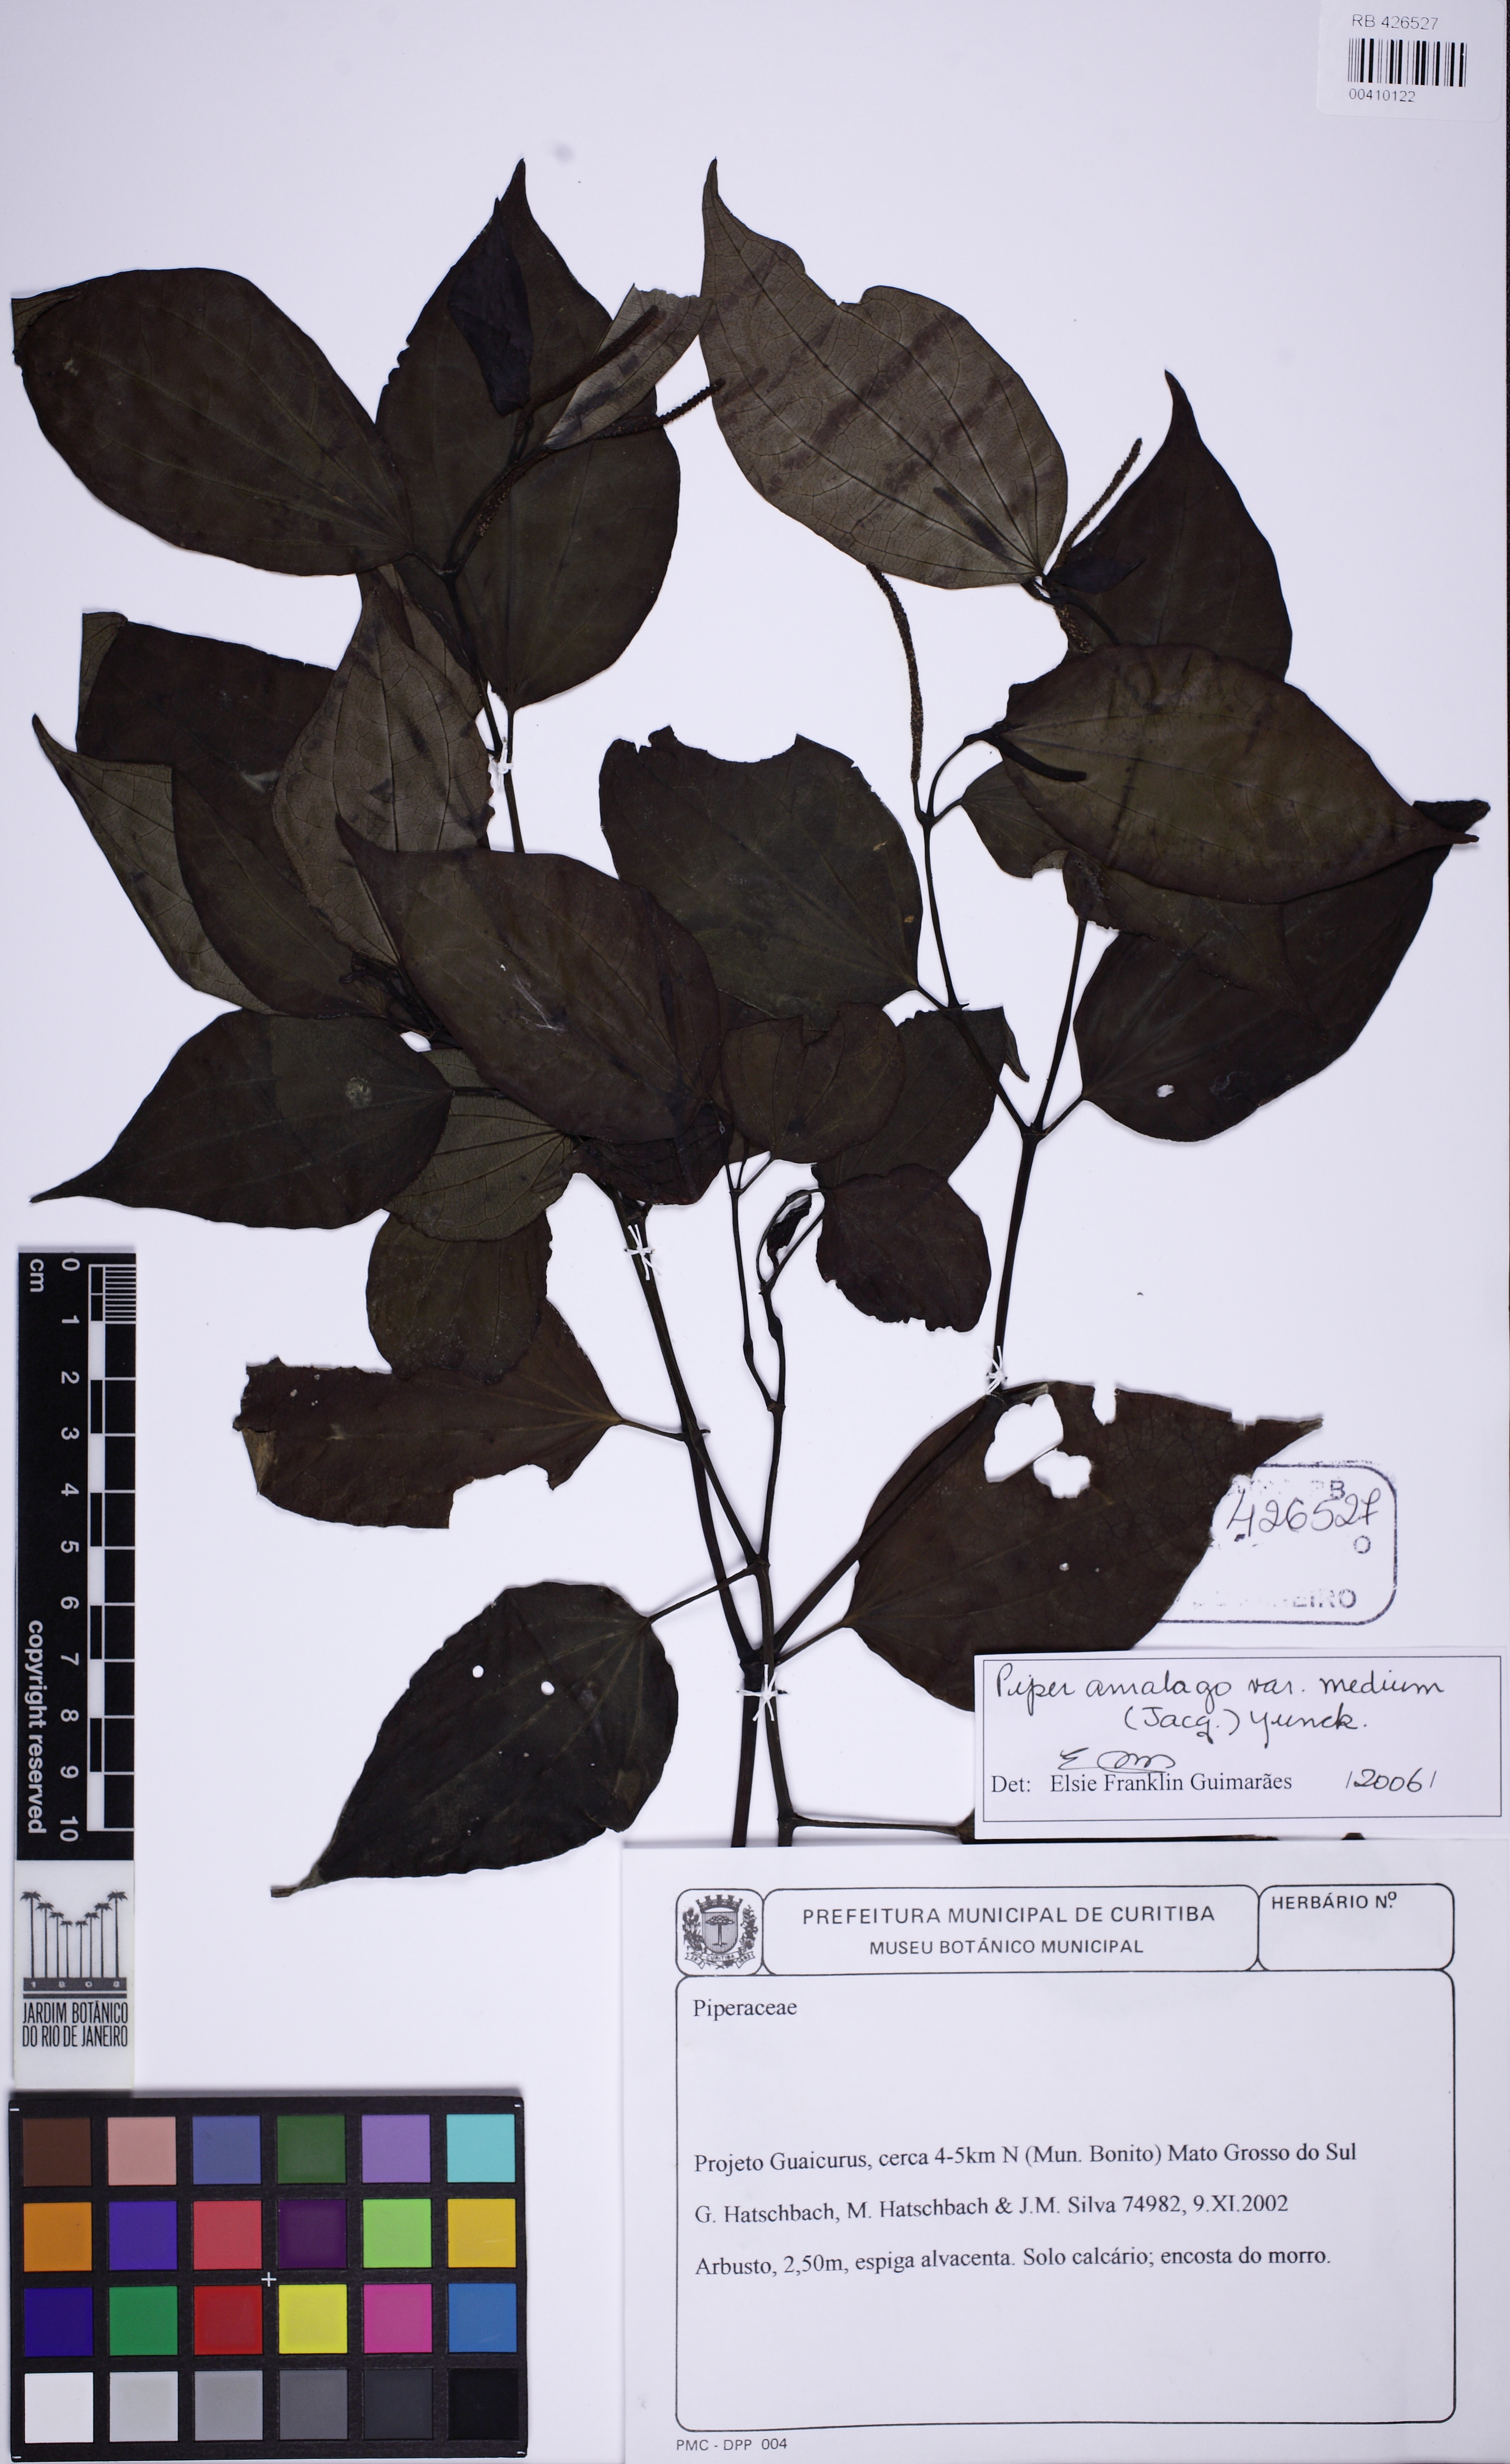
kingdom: Plantae
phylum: Tracheophyta
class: Magnoliopsida
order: Piperales
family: Piperaceae
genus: Piper
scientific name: Piper amalago
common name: Pepper-elder
